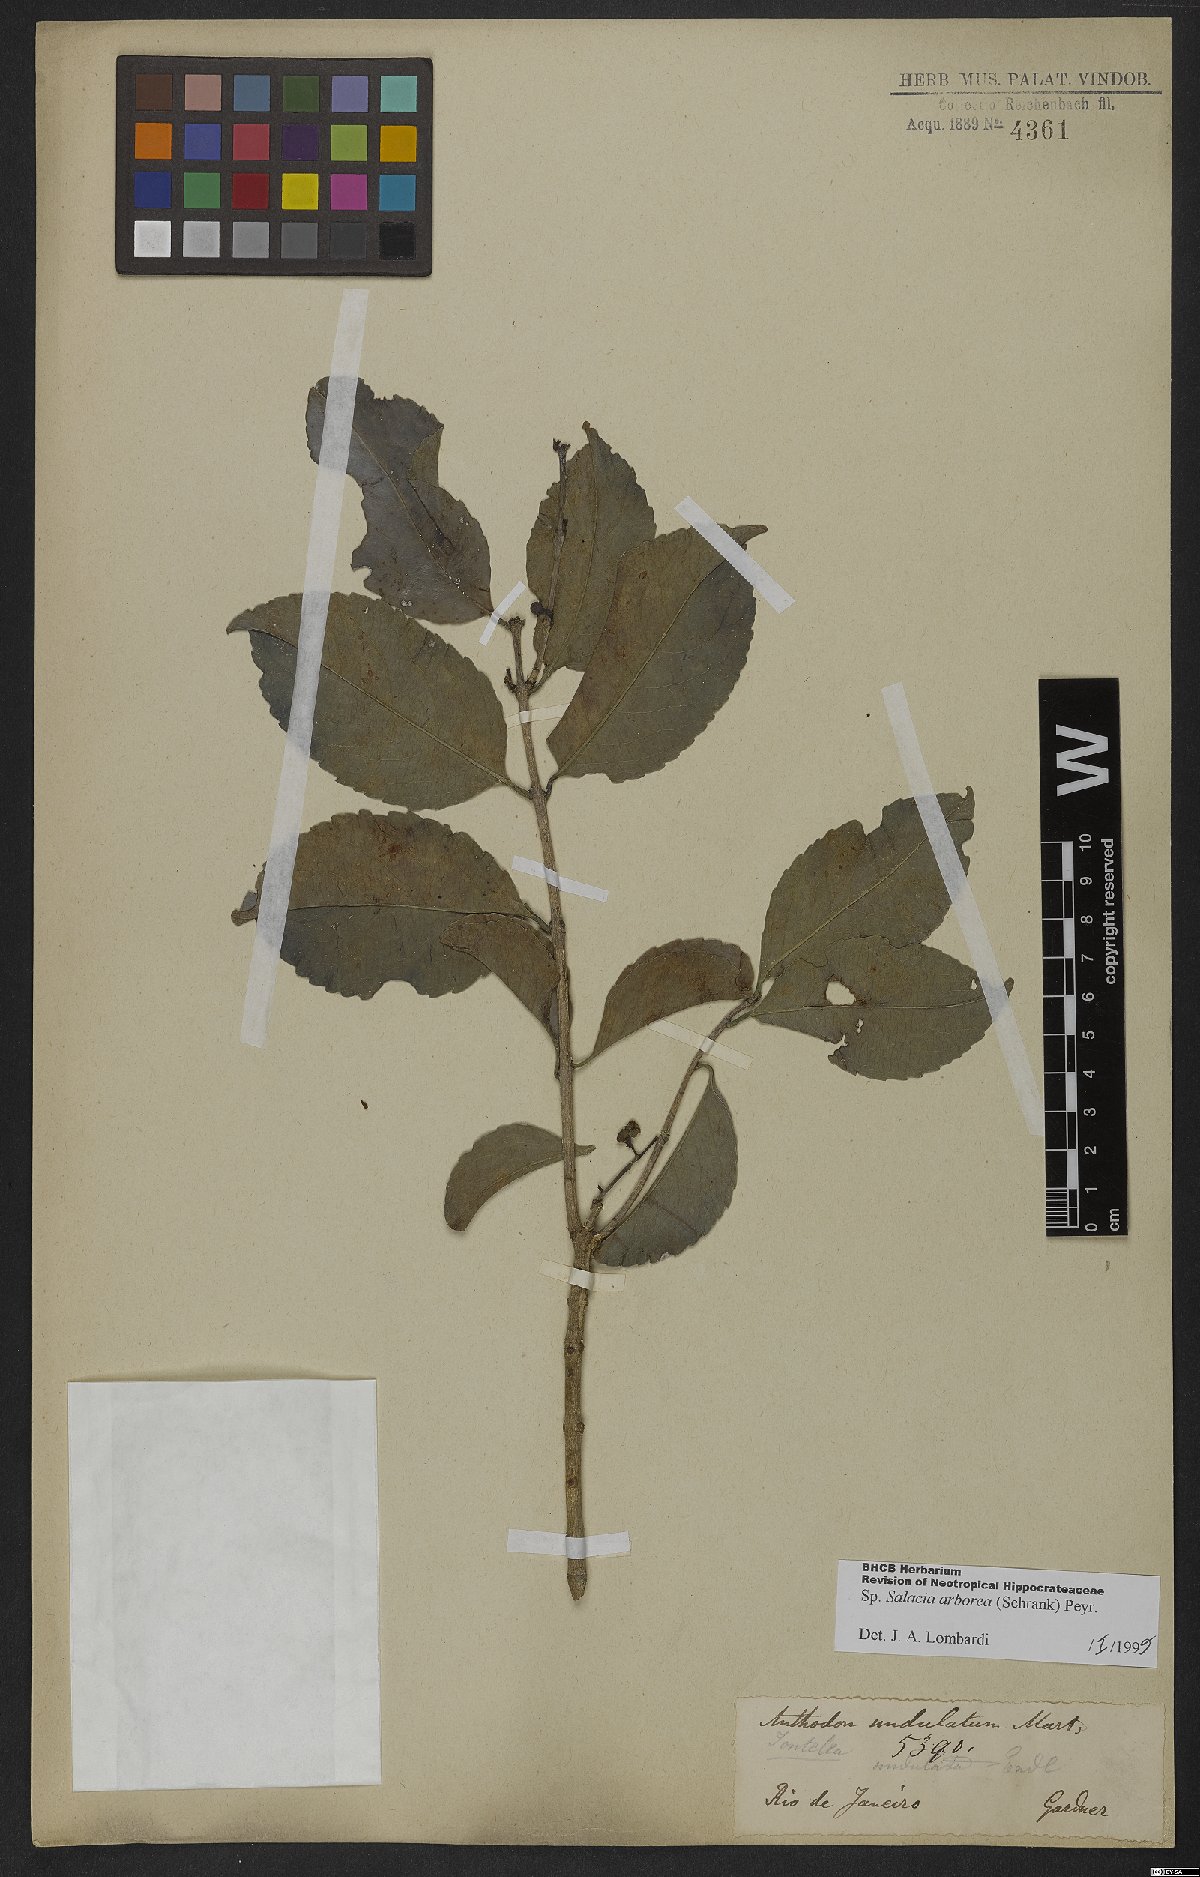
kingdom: Plantae
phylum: Tracheophyta
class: Magnoliopsida
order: Celastrales
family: Celastraceae
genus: Salacia
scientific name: Salacia arborea
